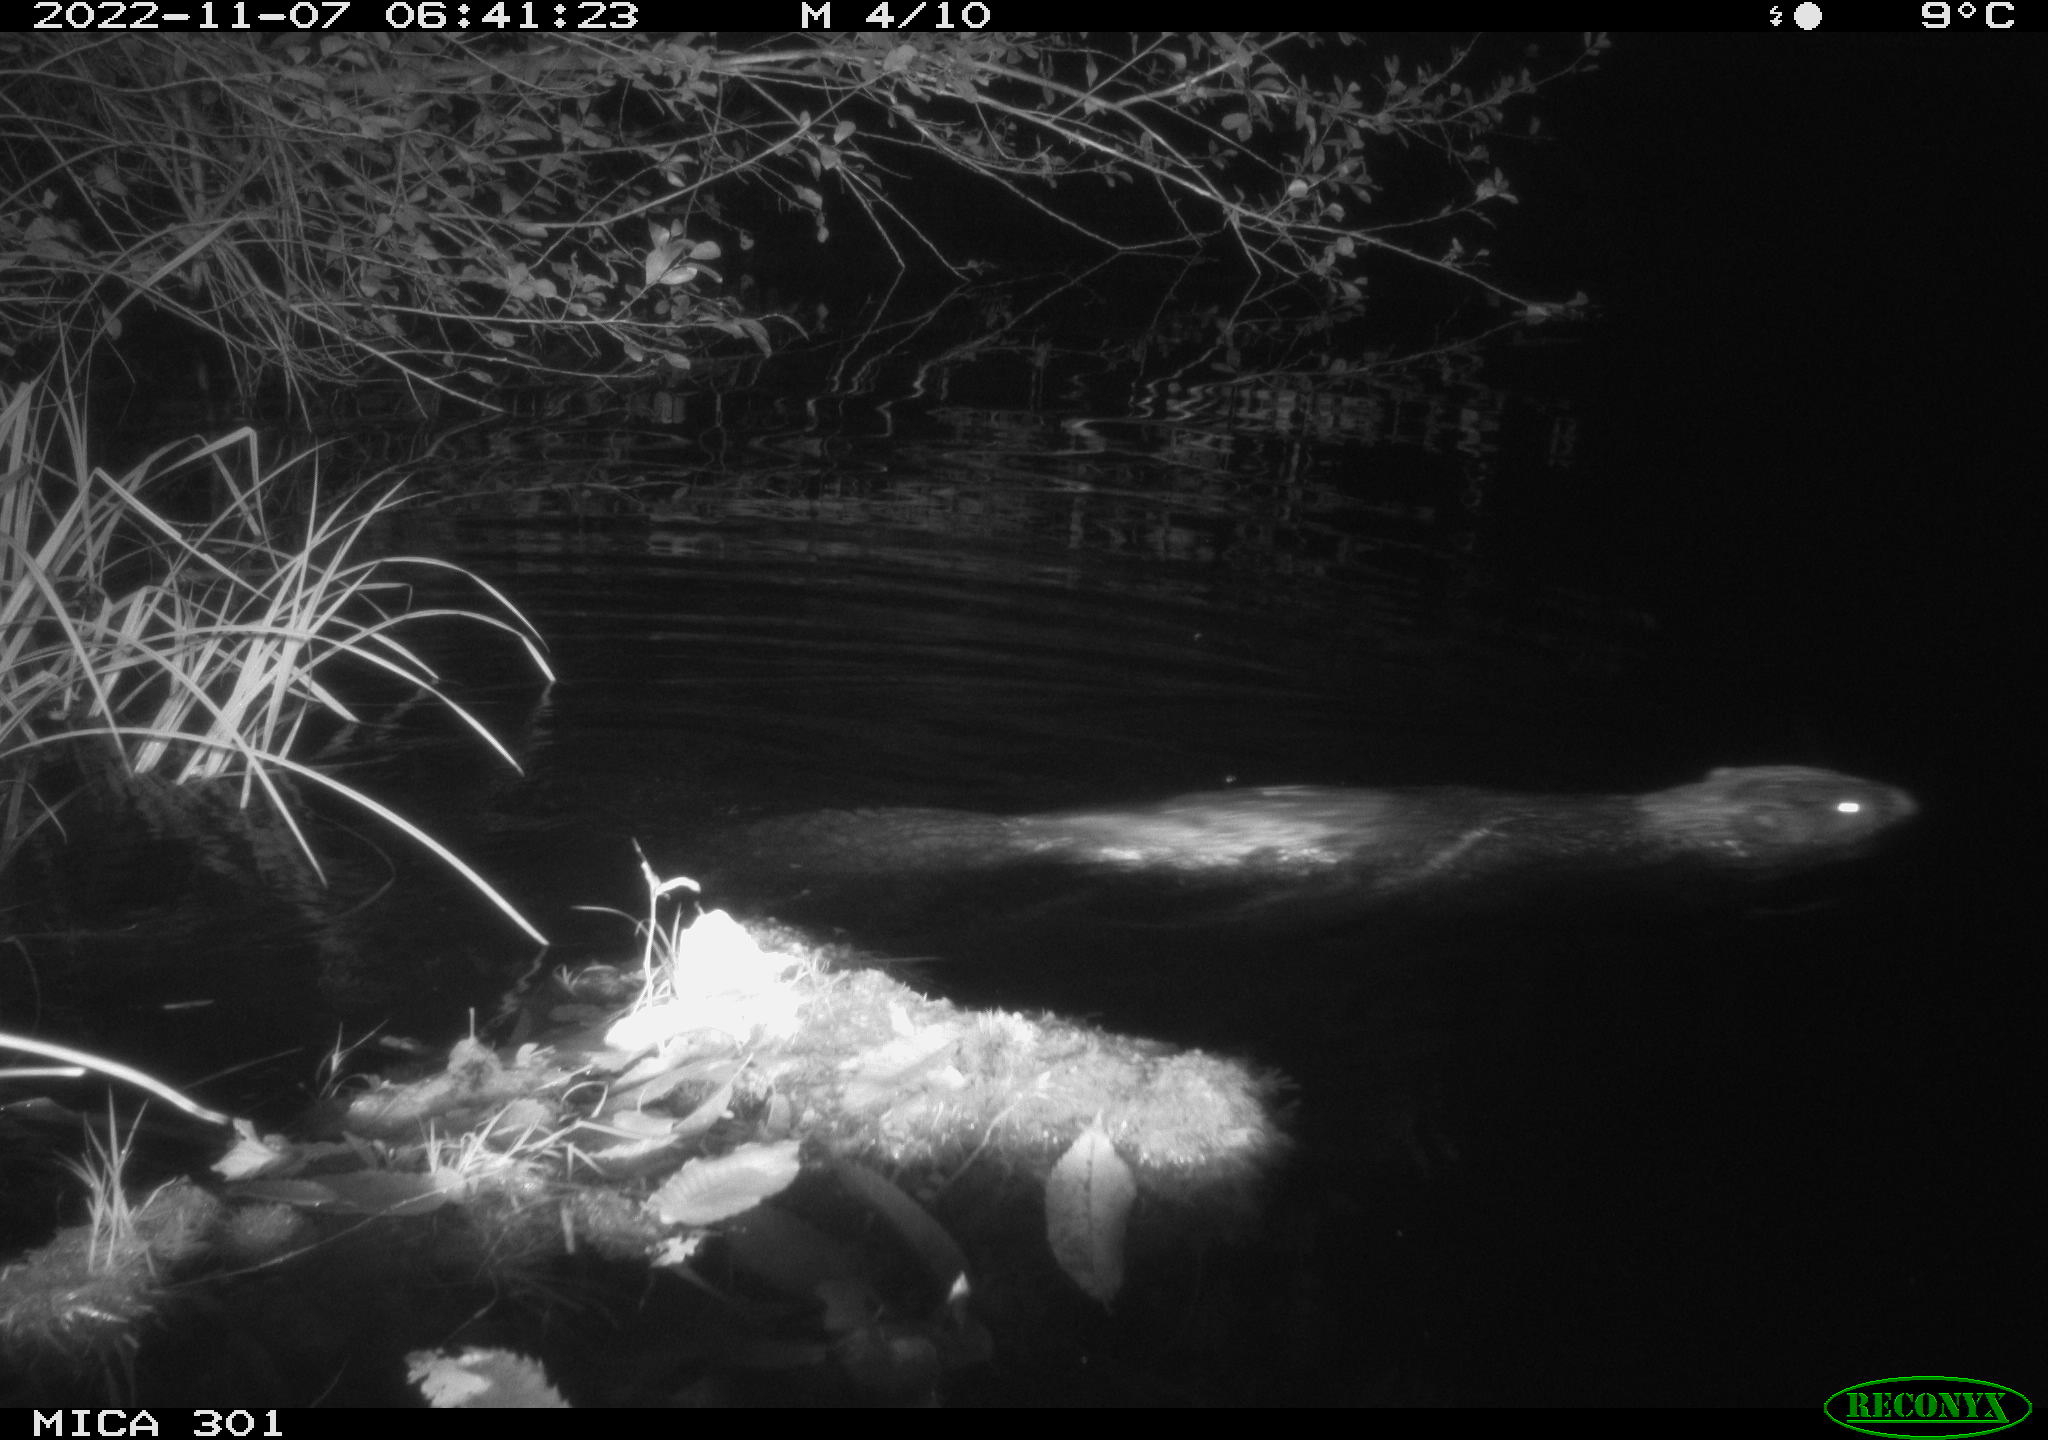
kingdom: Animalia
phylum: Chordata
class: Mammalia
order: Rodentia
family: Castoridae
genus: Castor
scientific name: Castor fiber
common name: Eurasian beaver
